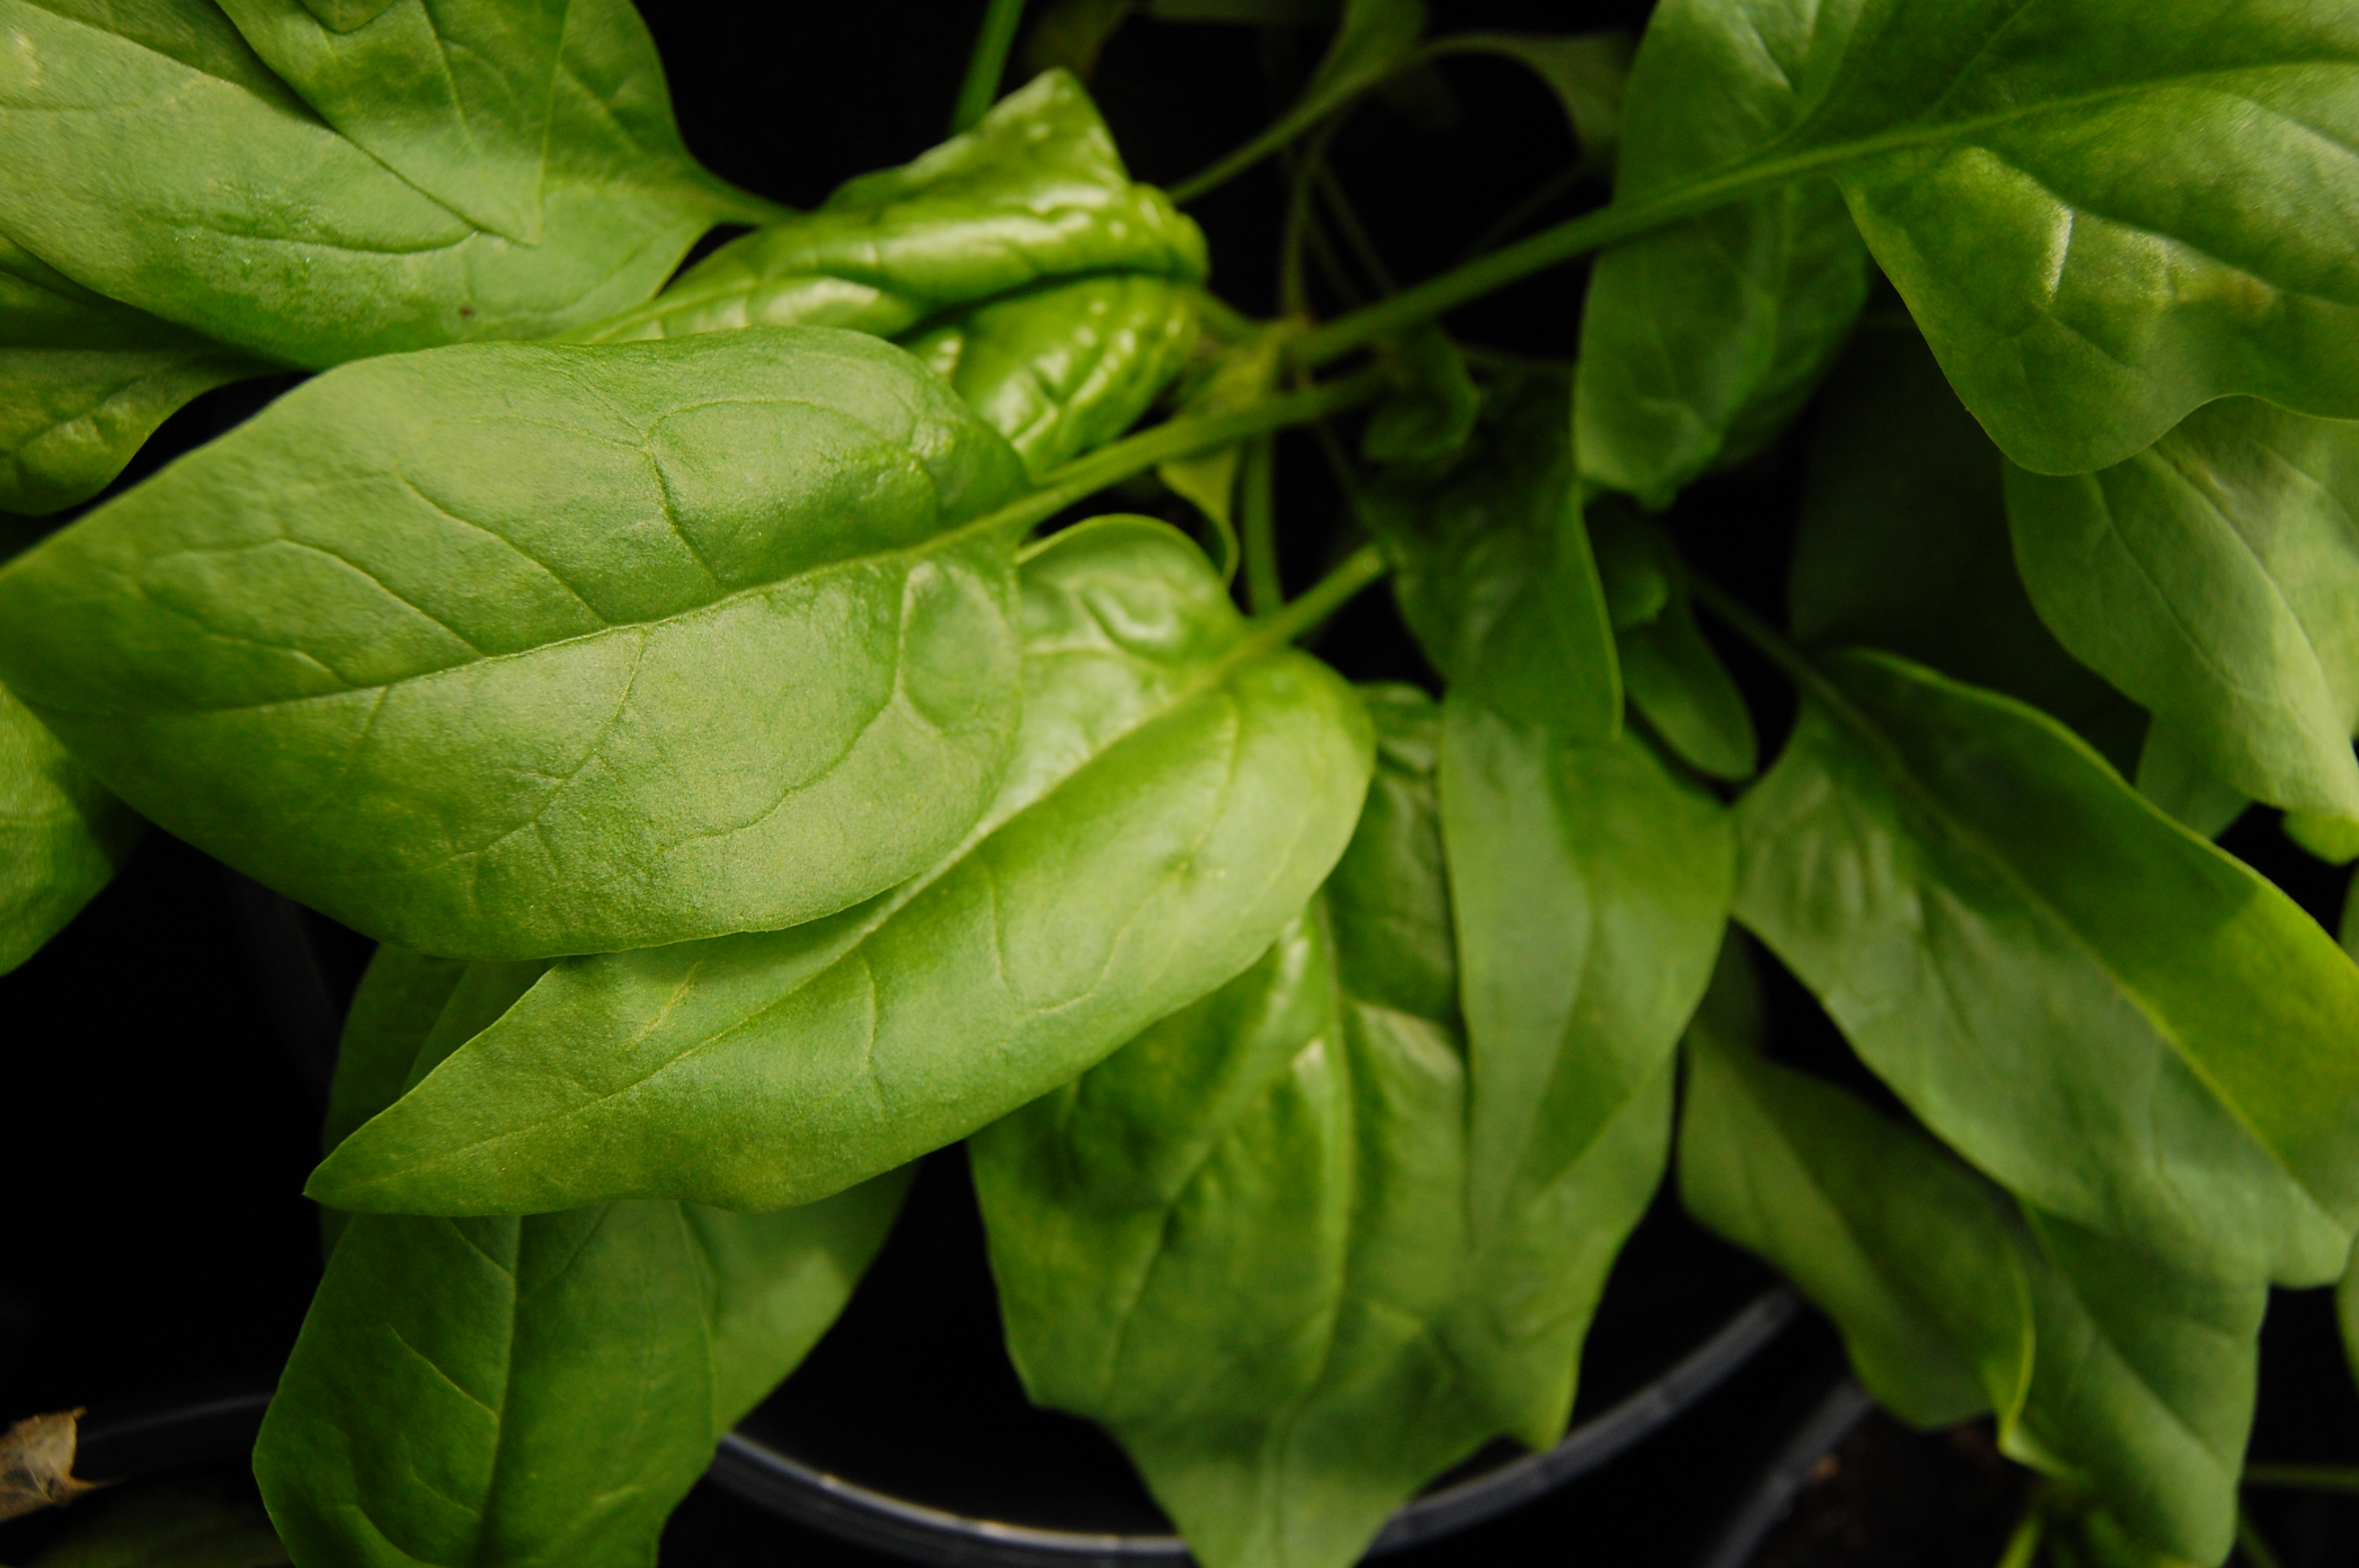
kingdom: Plantae
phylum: Tracheophyta
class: Magnoliopsida
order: Caryophyllales
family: Amaranthaceae
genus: Spinacia
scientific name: Spinacia oleracea
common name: Spinach
